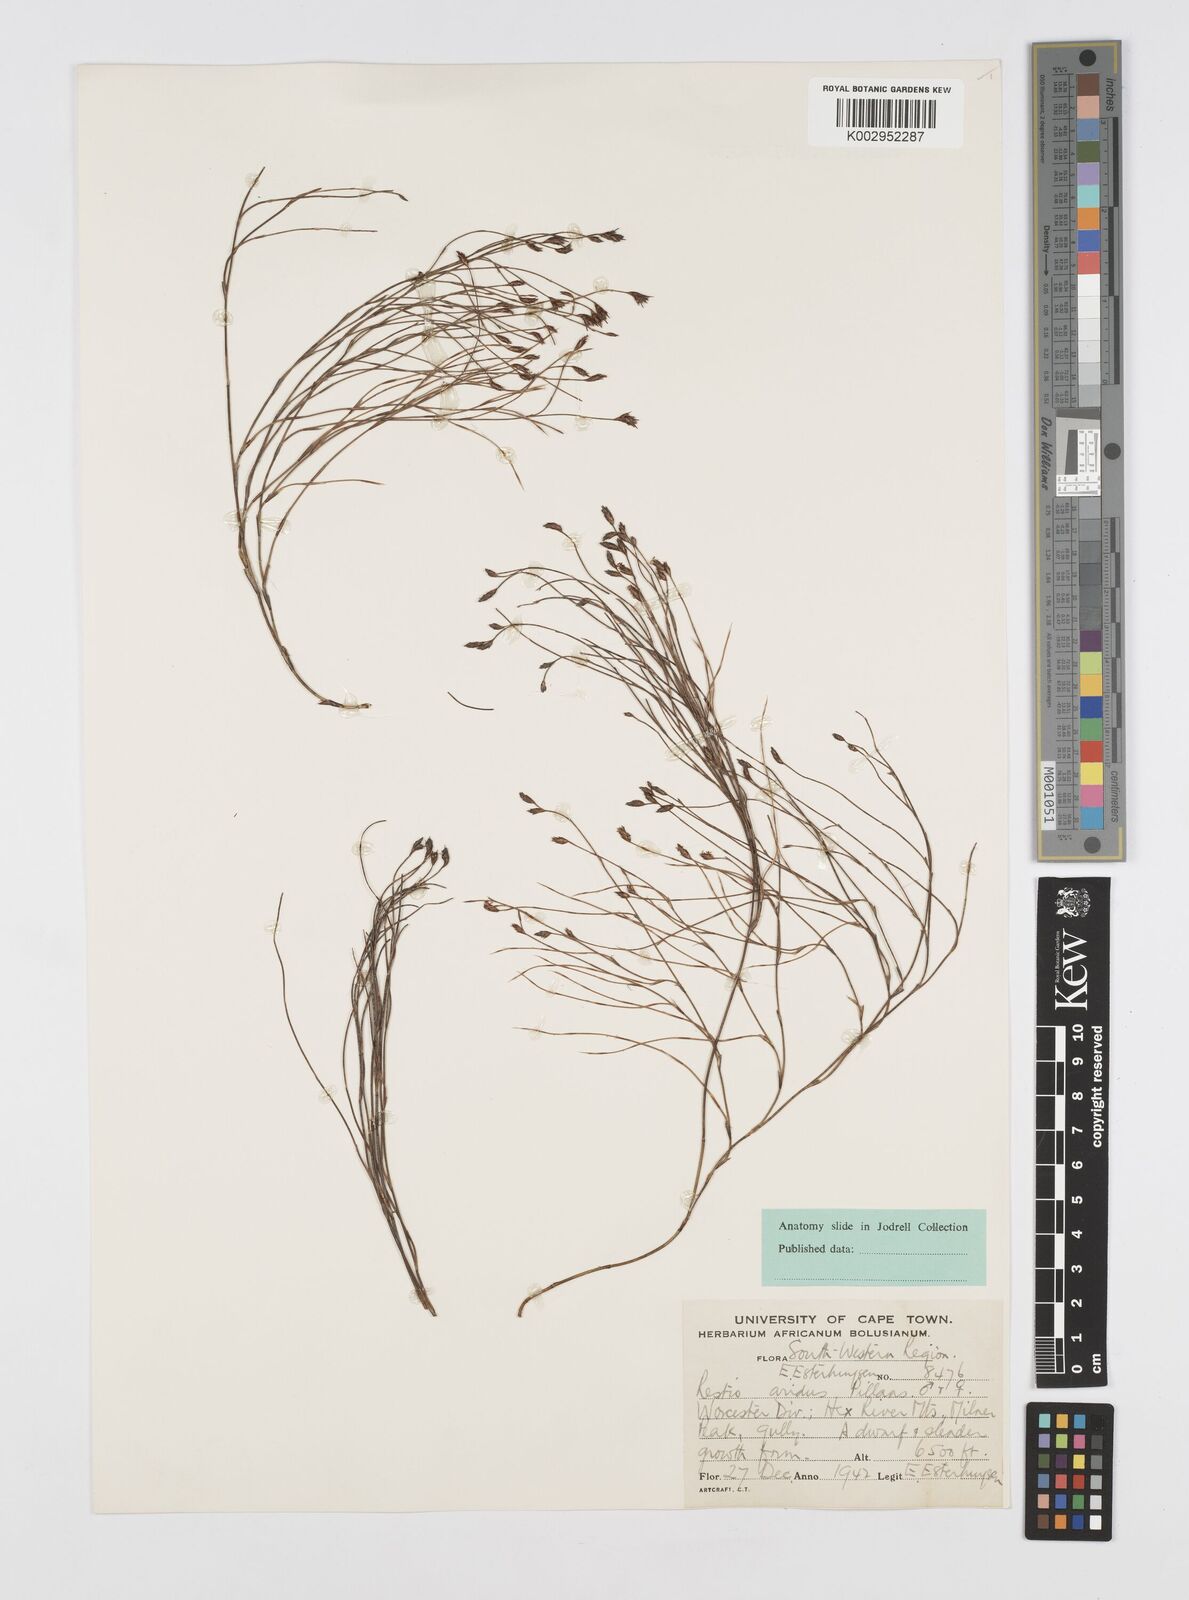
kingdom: Plantae
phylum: Tracheophyta
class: Liliopsida
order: Poales
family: Restionaceae
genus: Restio
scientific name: Restio aridus
